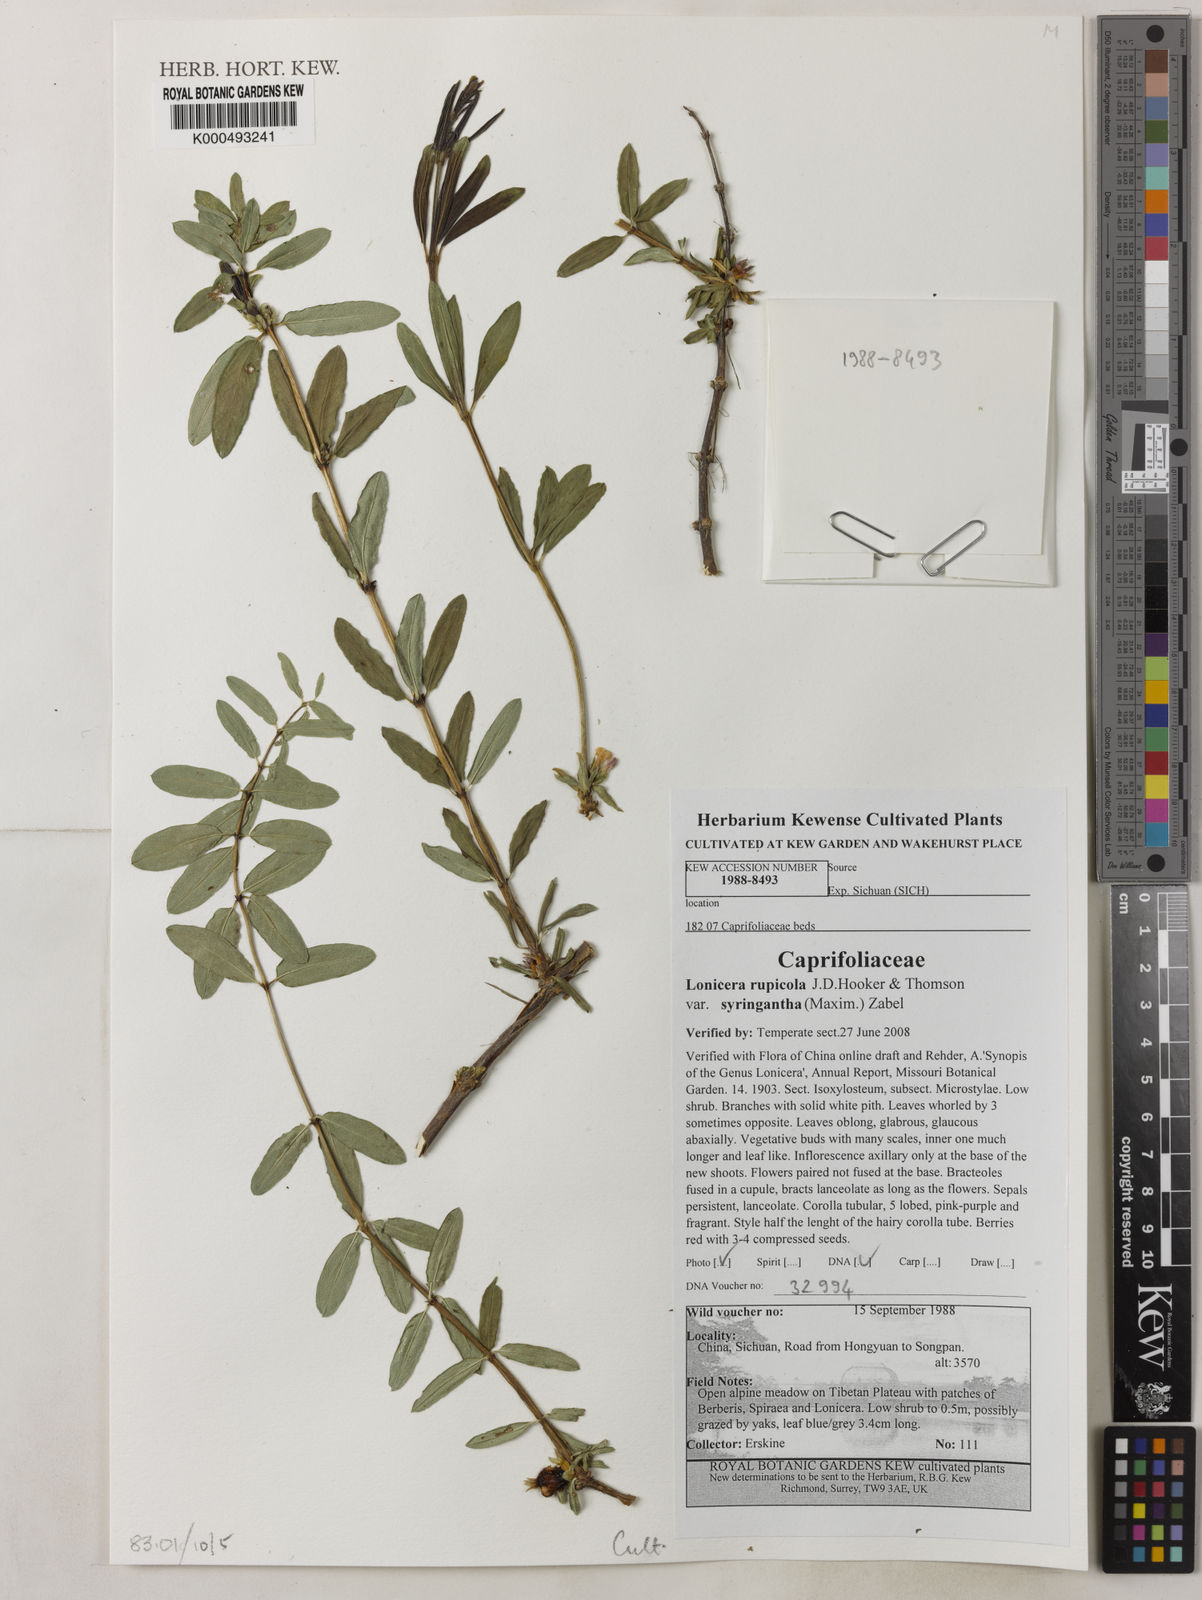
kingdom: Plantae
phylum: Tracheophyta
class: Magnoliopsida
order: Dipsacales
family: Caprifoliaceae
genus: Lonicera
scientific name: Lonicera rupicola
